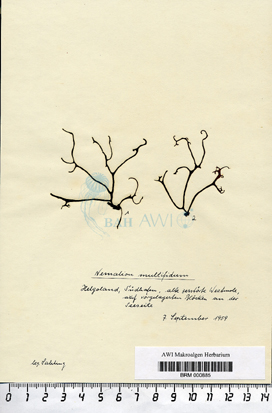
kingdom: Plantae
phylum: Rhodophyta
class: Florideophyceae
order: Nemaliales
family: Nemaliaceae
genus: Nemalion
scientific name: Nemalion multifidum
